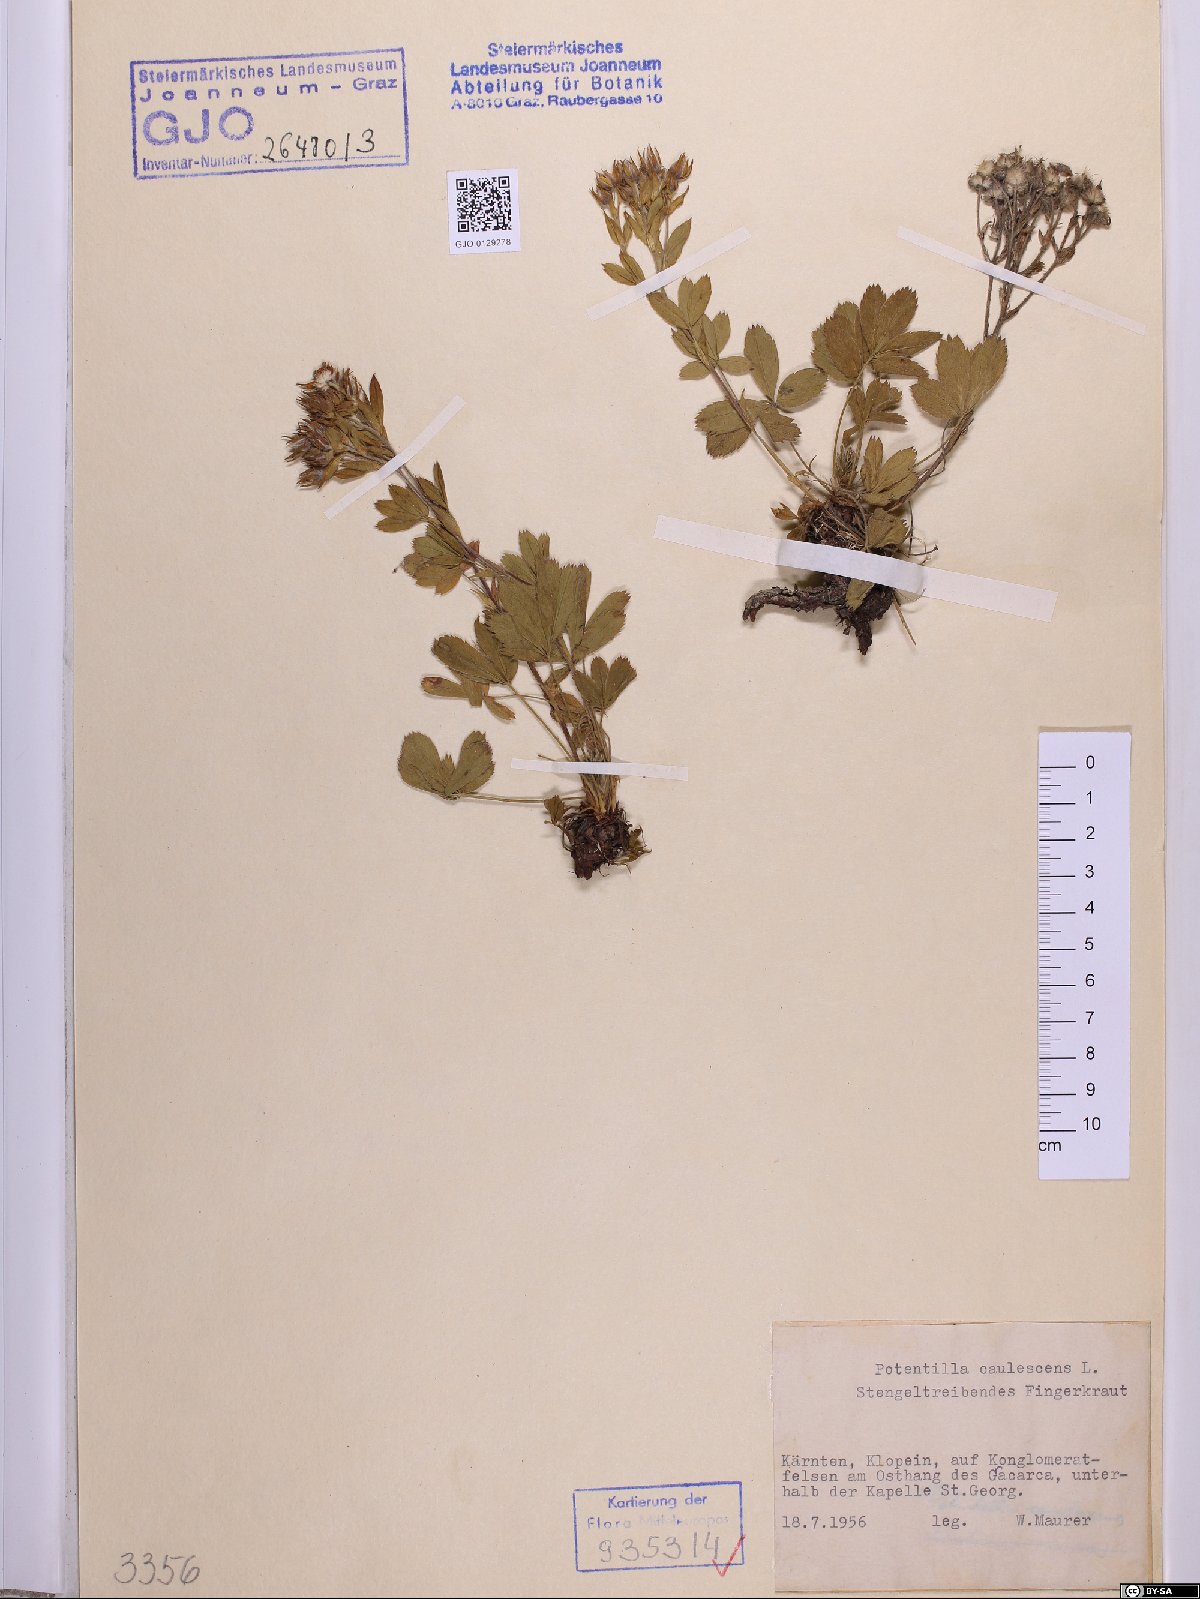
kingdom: Plantae
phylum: Tracheophyta
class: Magnoliopsida
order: Rosales
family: Rosaceae
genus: Potentilla
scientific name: Potentilla caulescens
